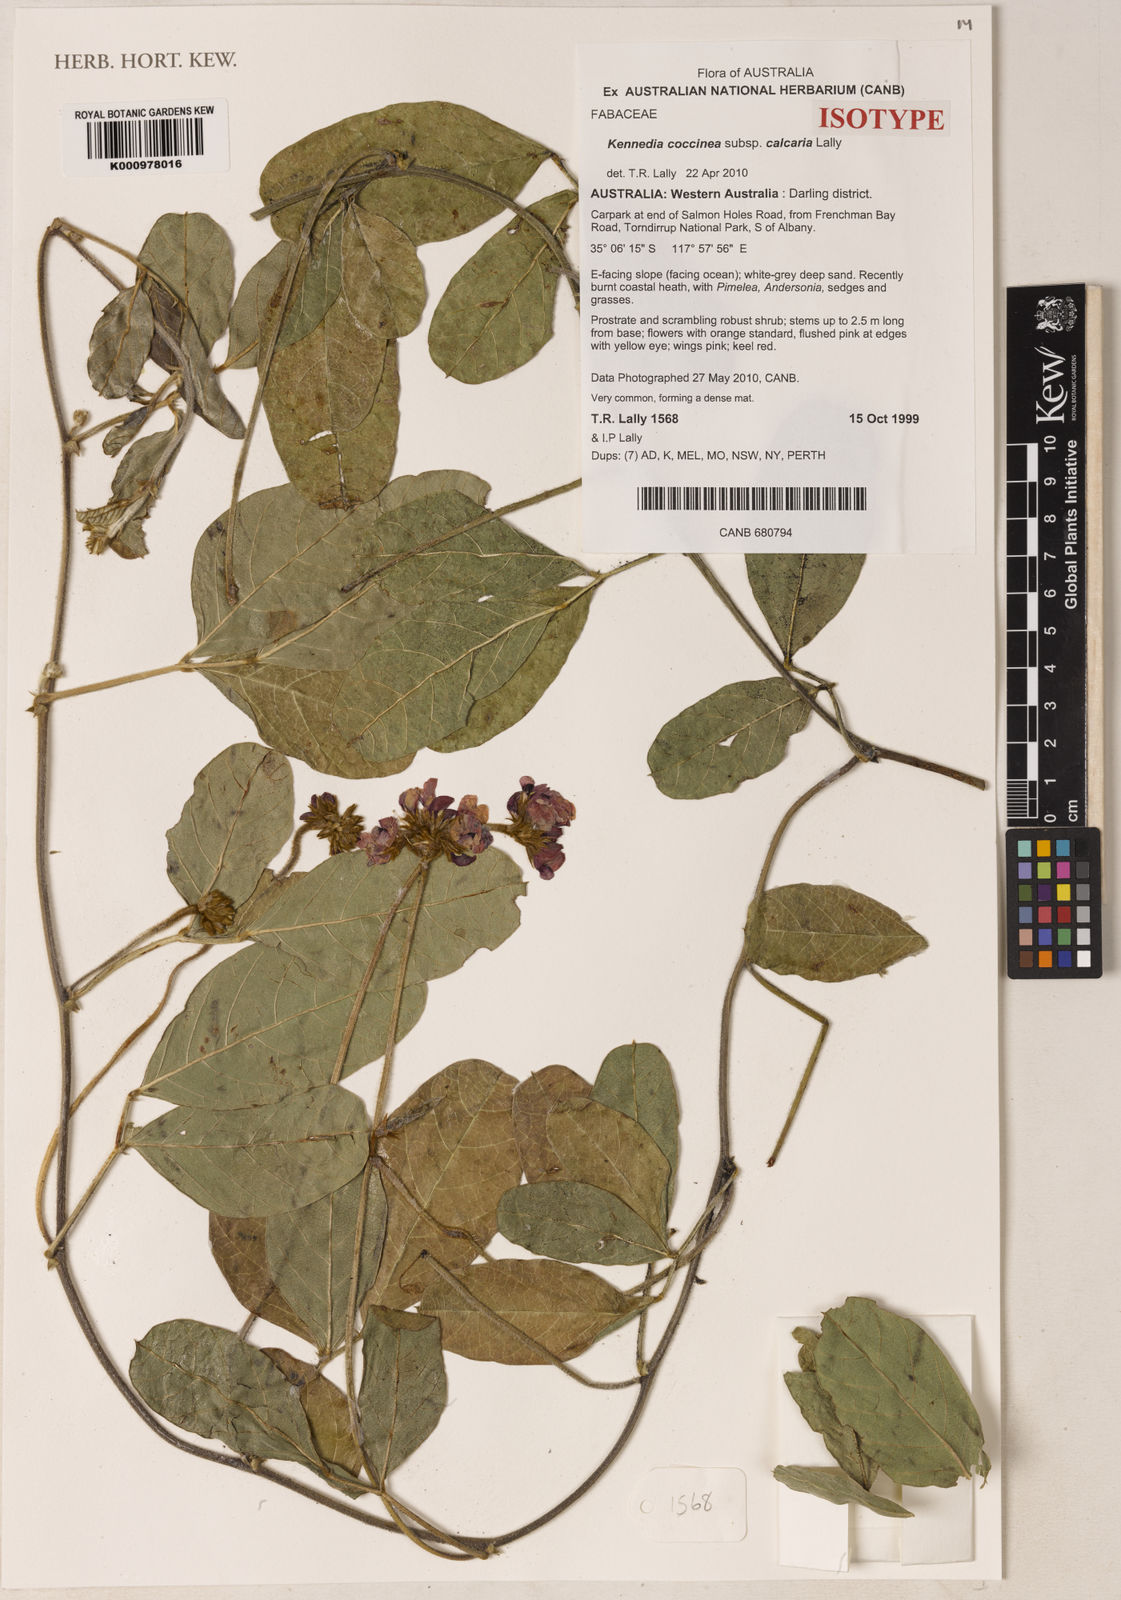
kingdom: Plantae
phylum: Tracheophyta
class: Magnoliopsida
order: Fabales
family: Fabaceae
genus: Kennedia
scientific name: Kennedia
